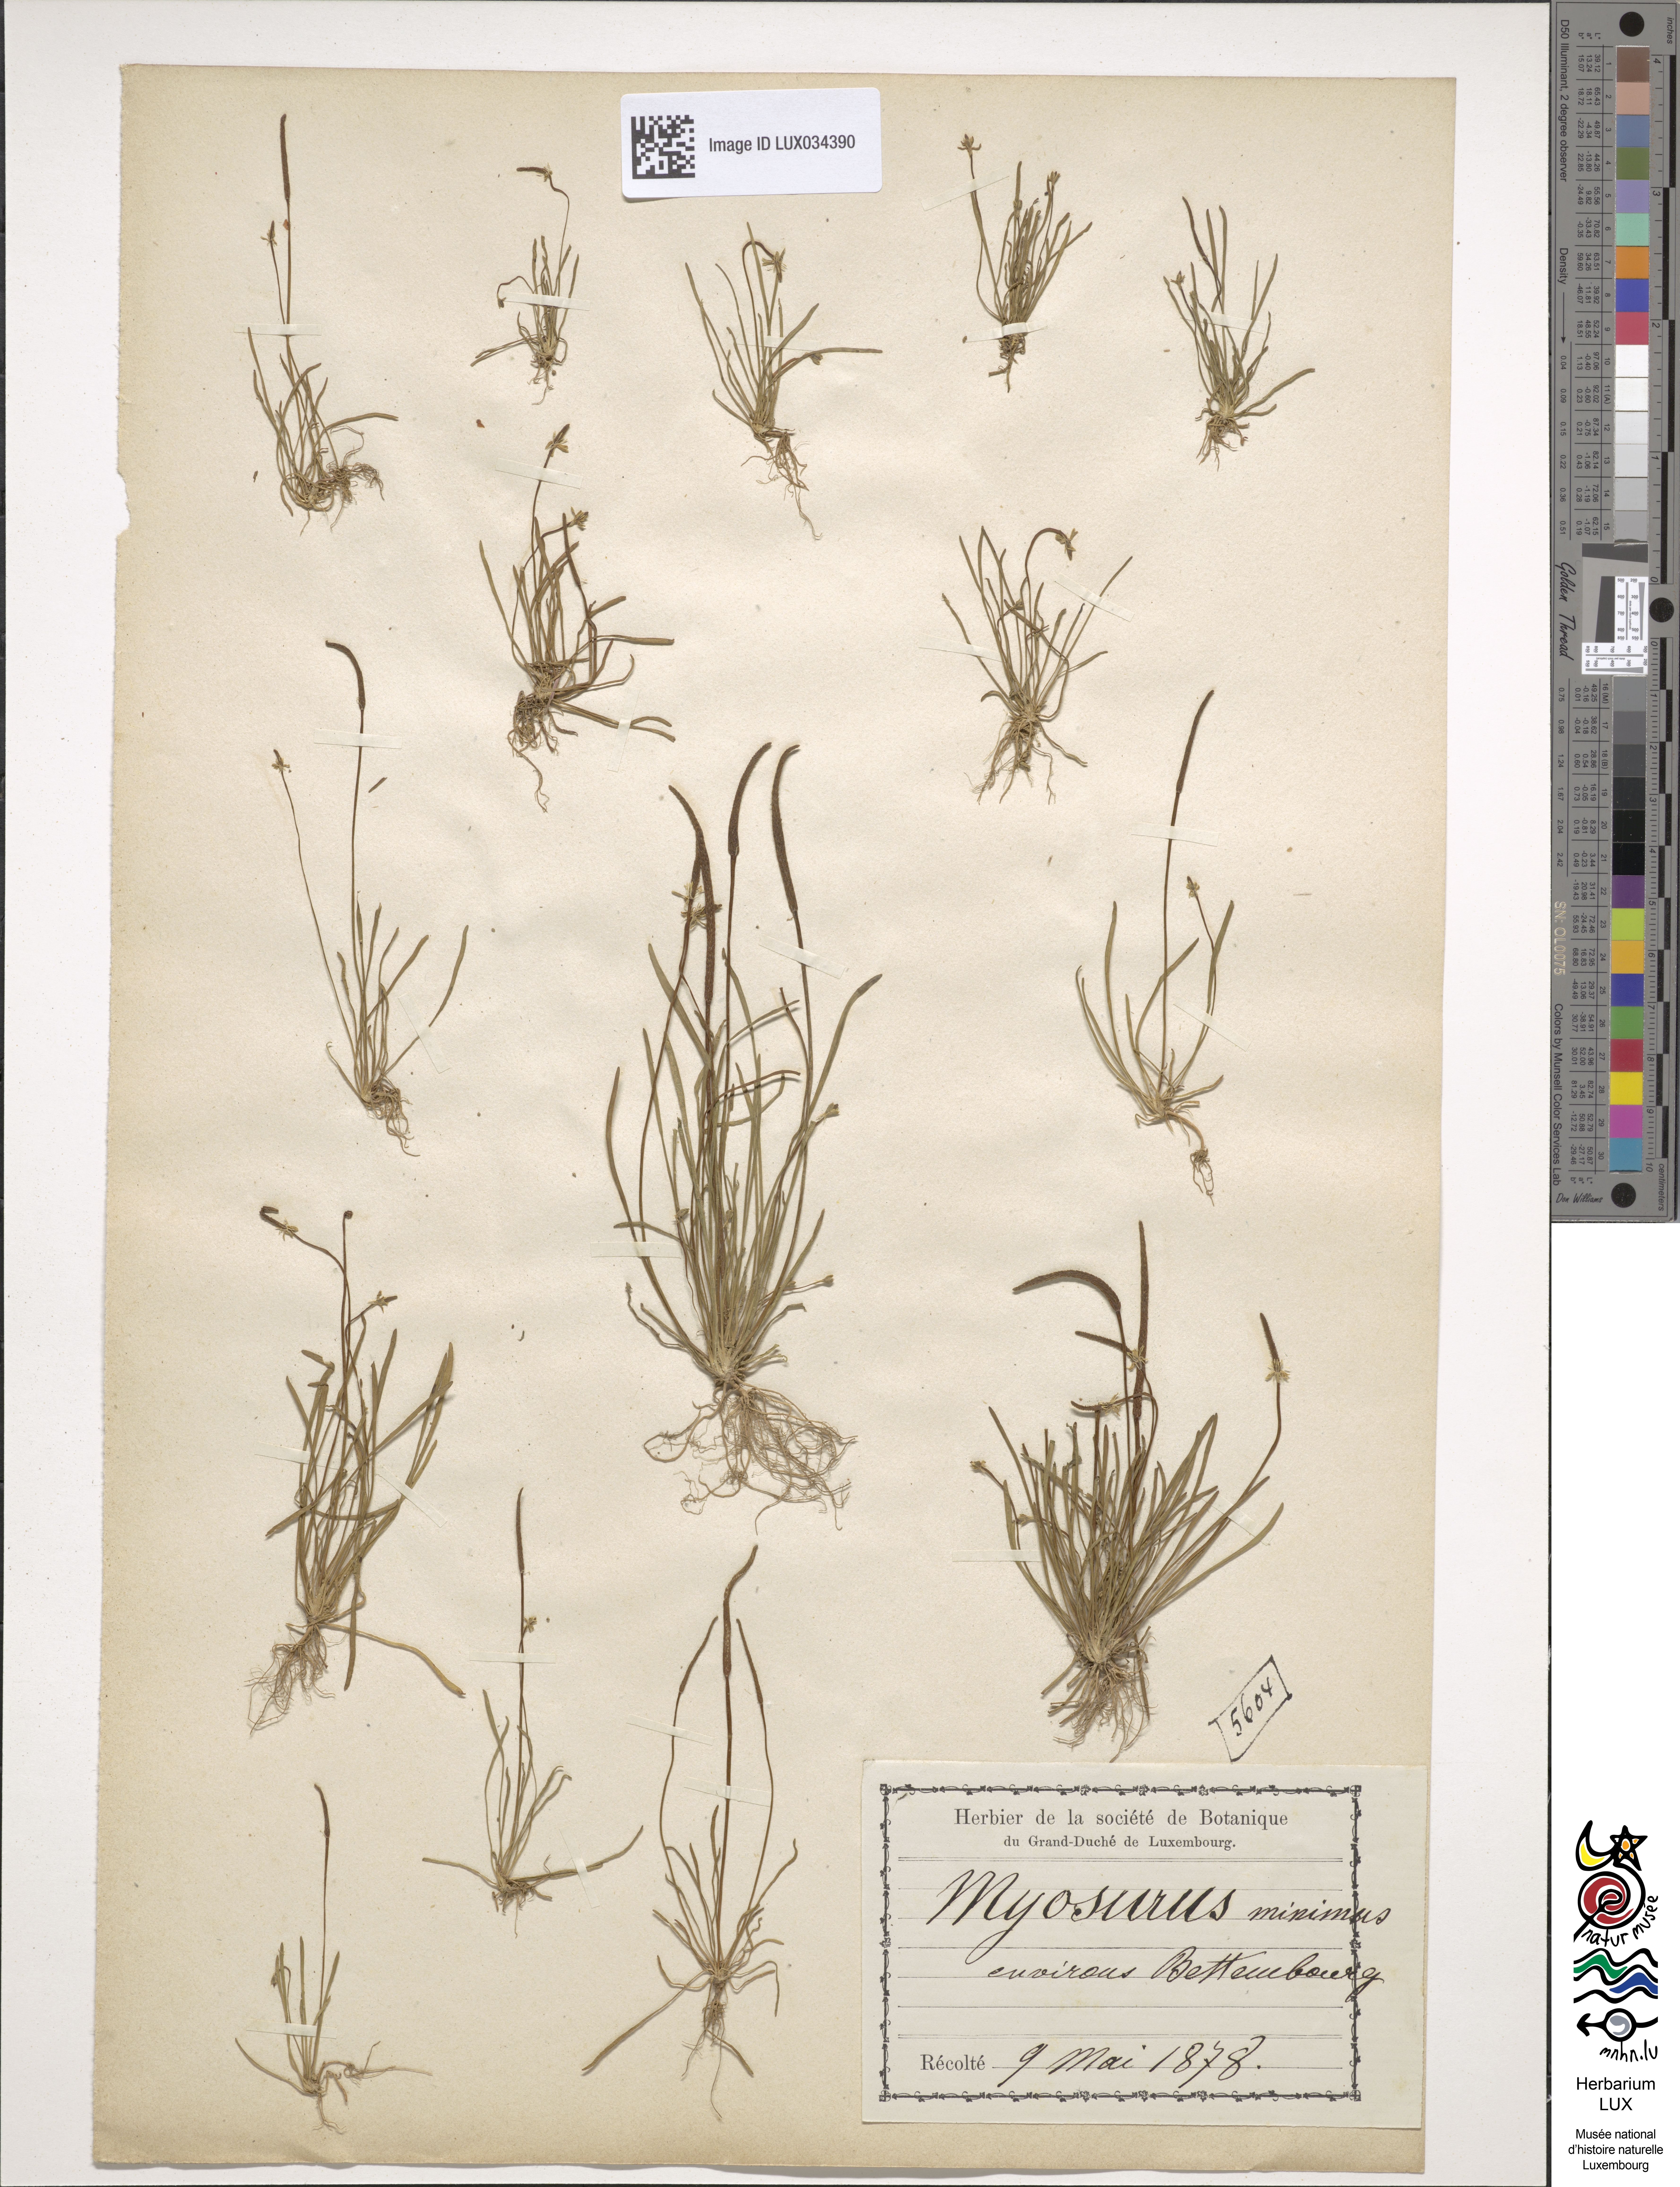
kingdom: Plantae
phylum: Tracheophyta
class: Magnoliopsida
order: Ranunculales
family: Ranunculaceae
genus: Myosurus
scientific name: Myosurus minimus
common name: Mousetail
